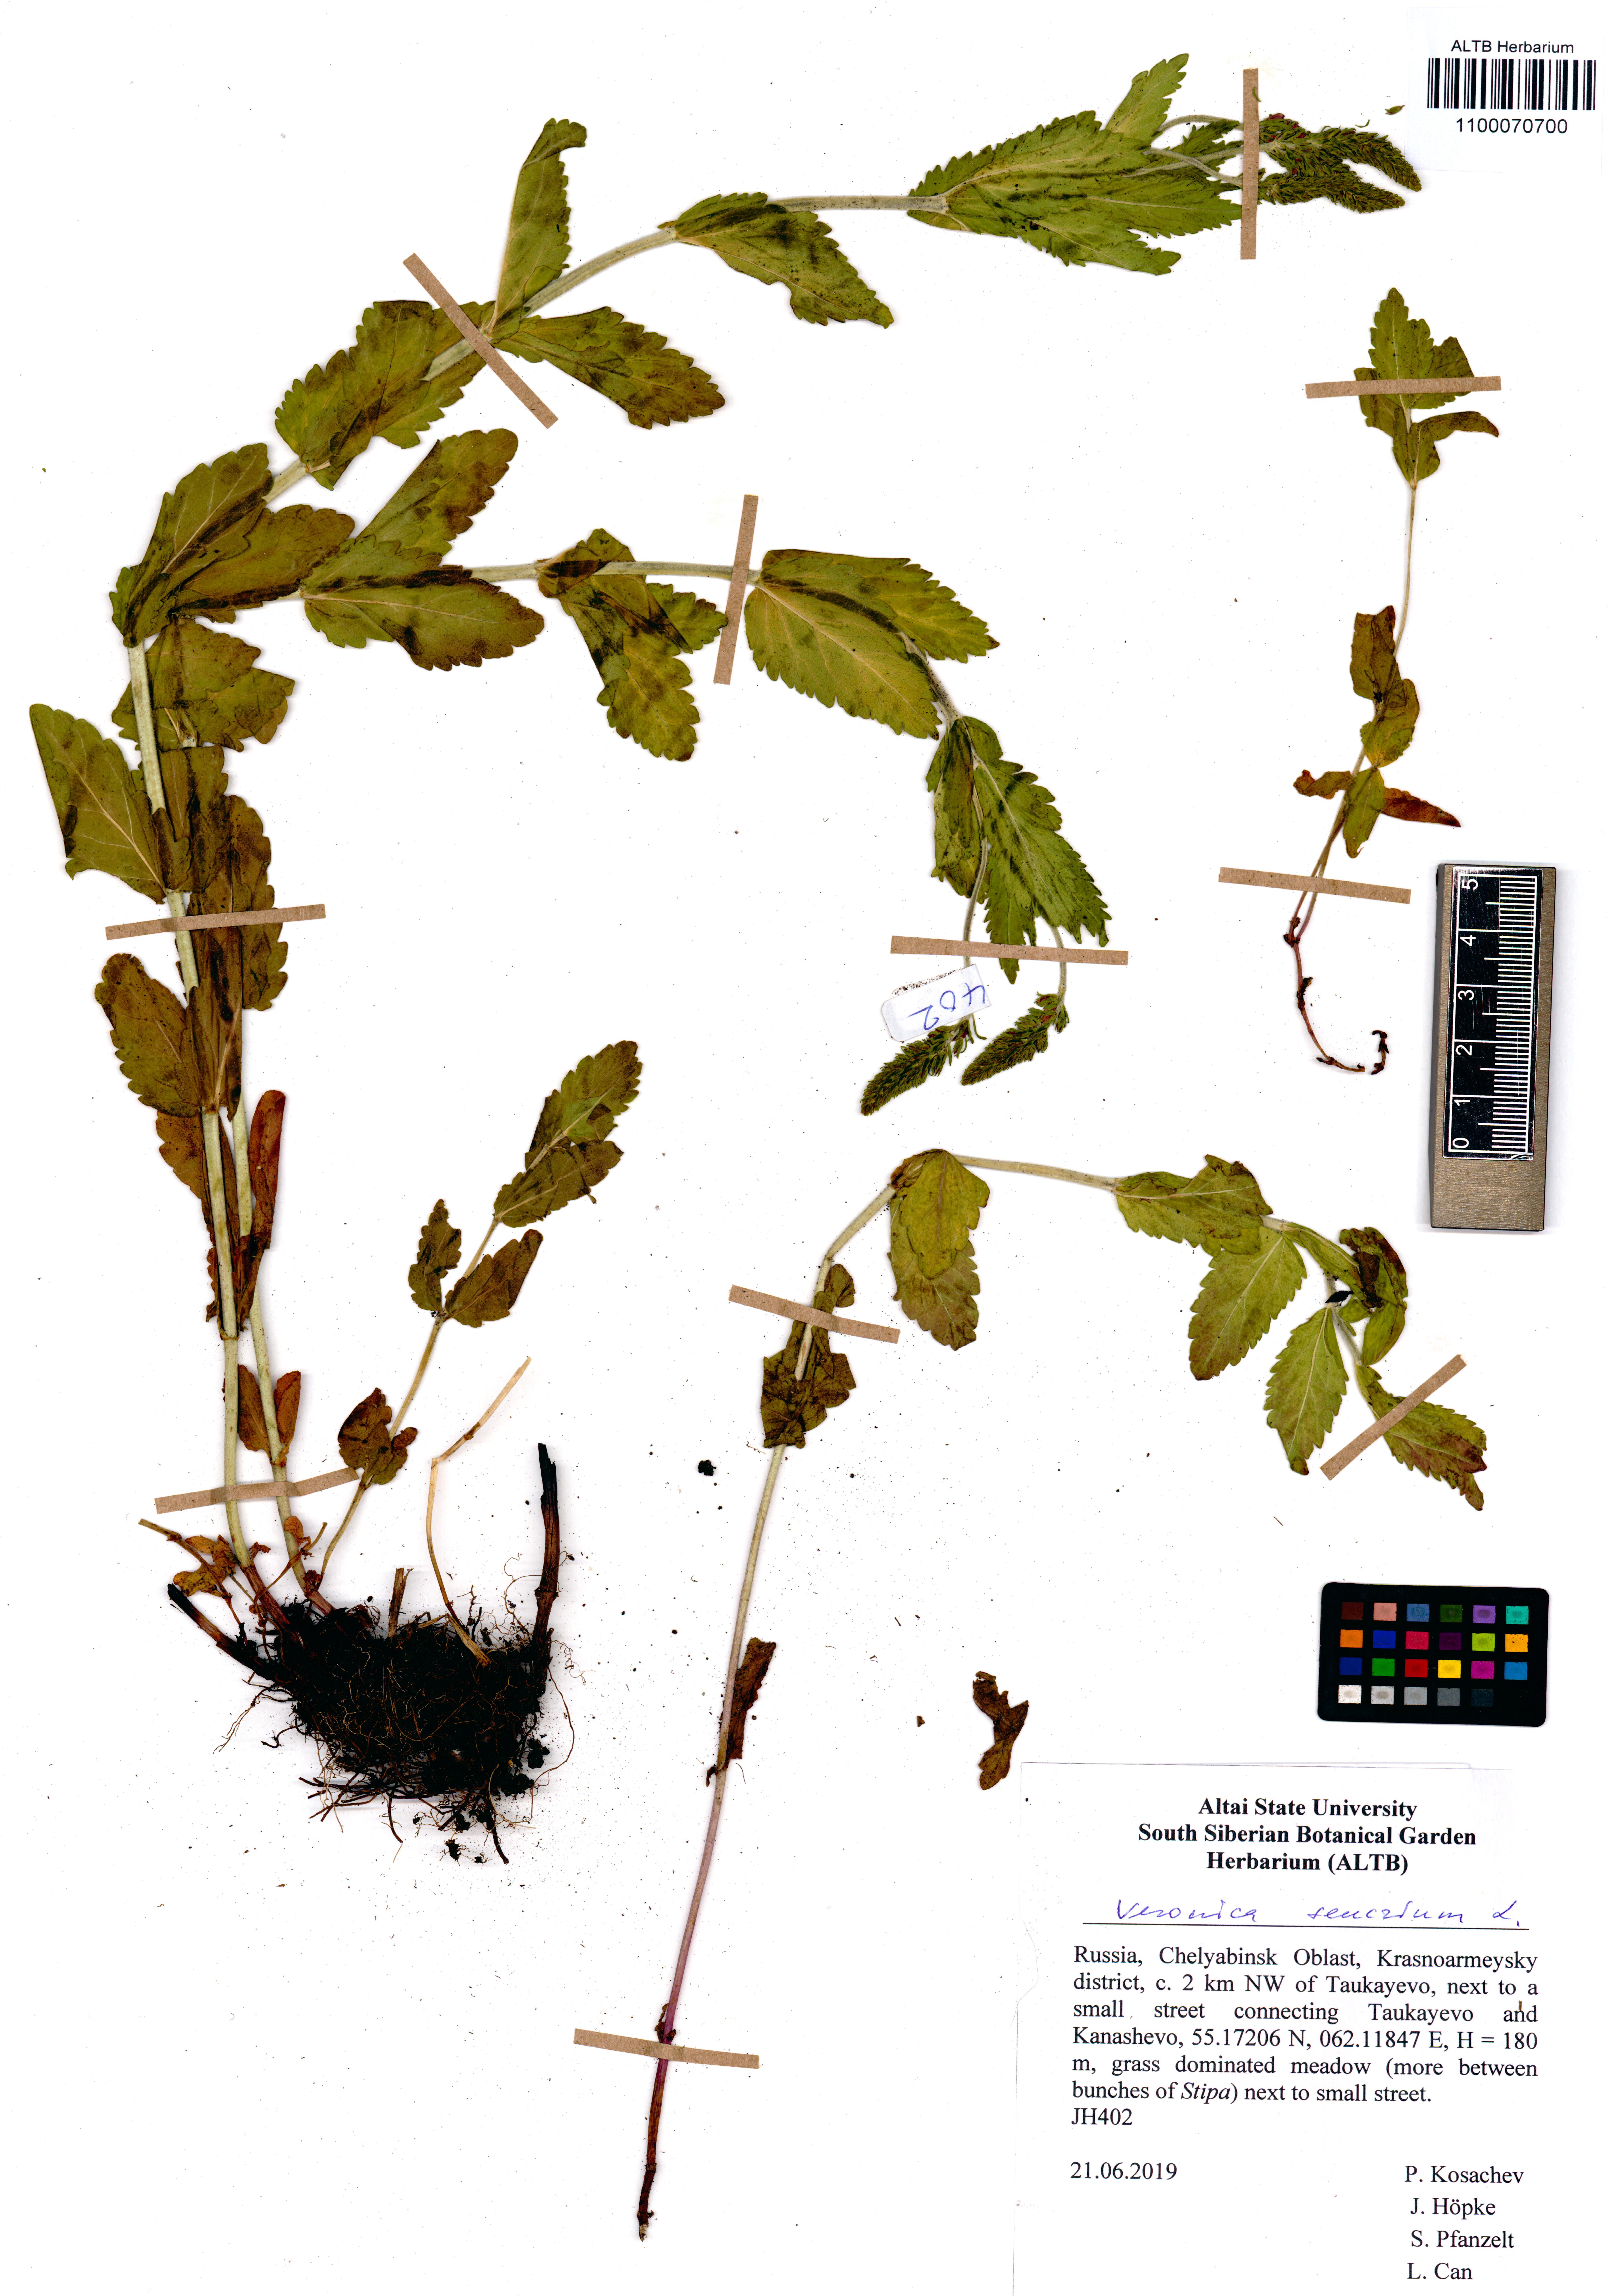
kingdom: Plantae
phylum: Tracheophyta
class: Magnoliopsida
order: Lamiales
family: Plantaginaceae
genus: Veronica
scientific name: Veronica teucrium
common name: Large speedwell
